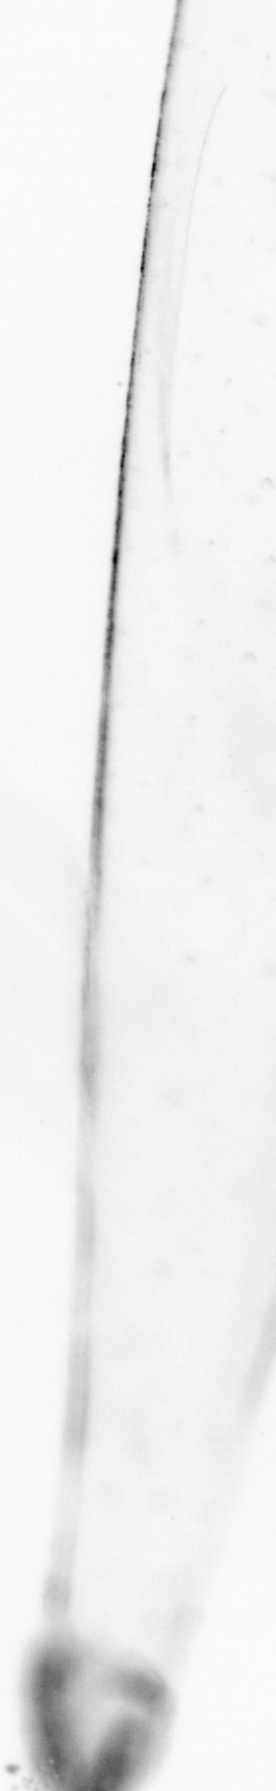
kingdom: Animalia
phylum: Chaetognatha
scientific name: Chaetognatha
